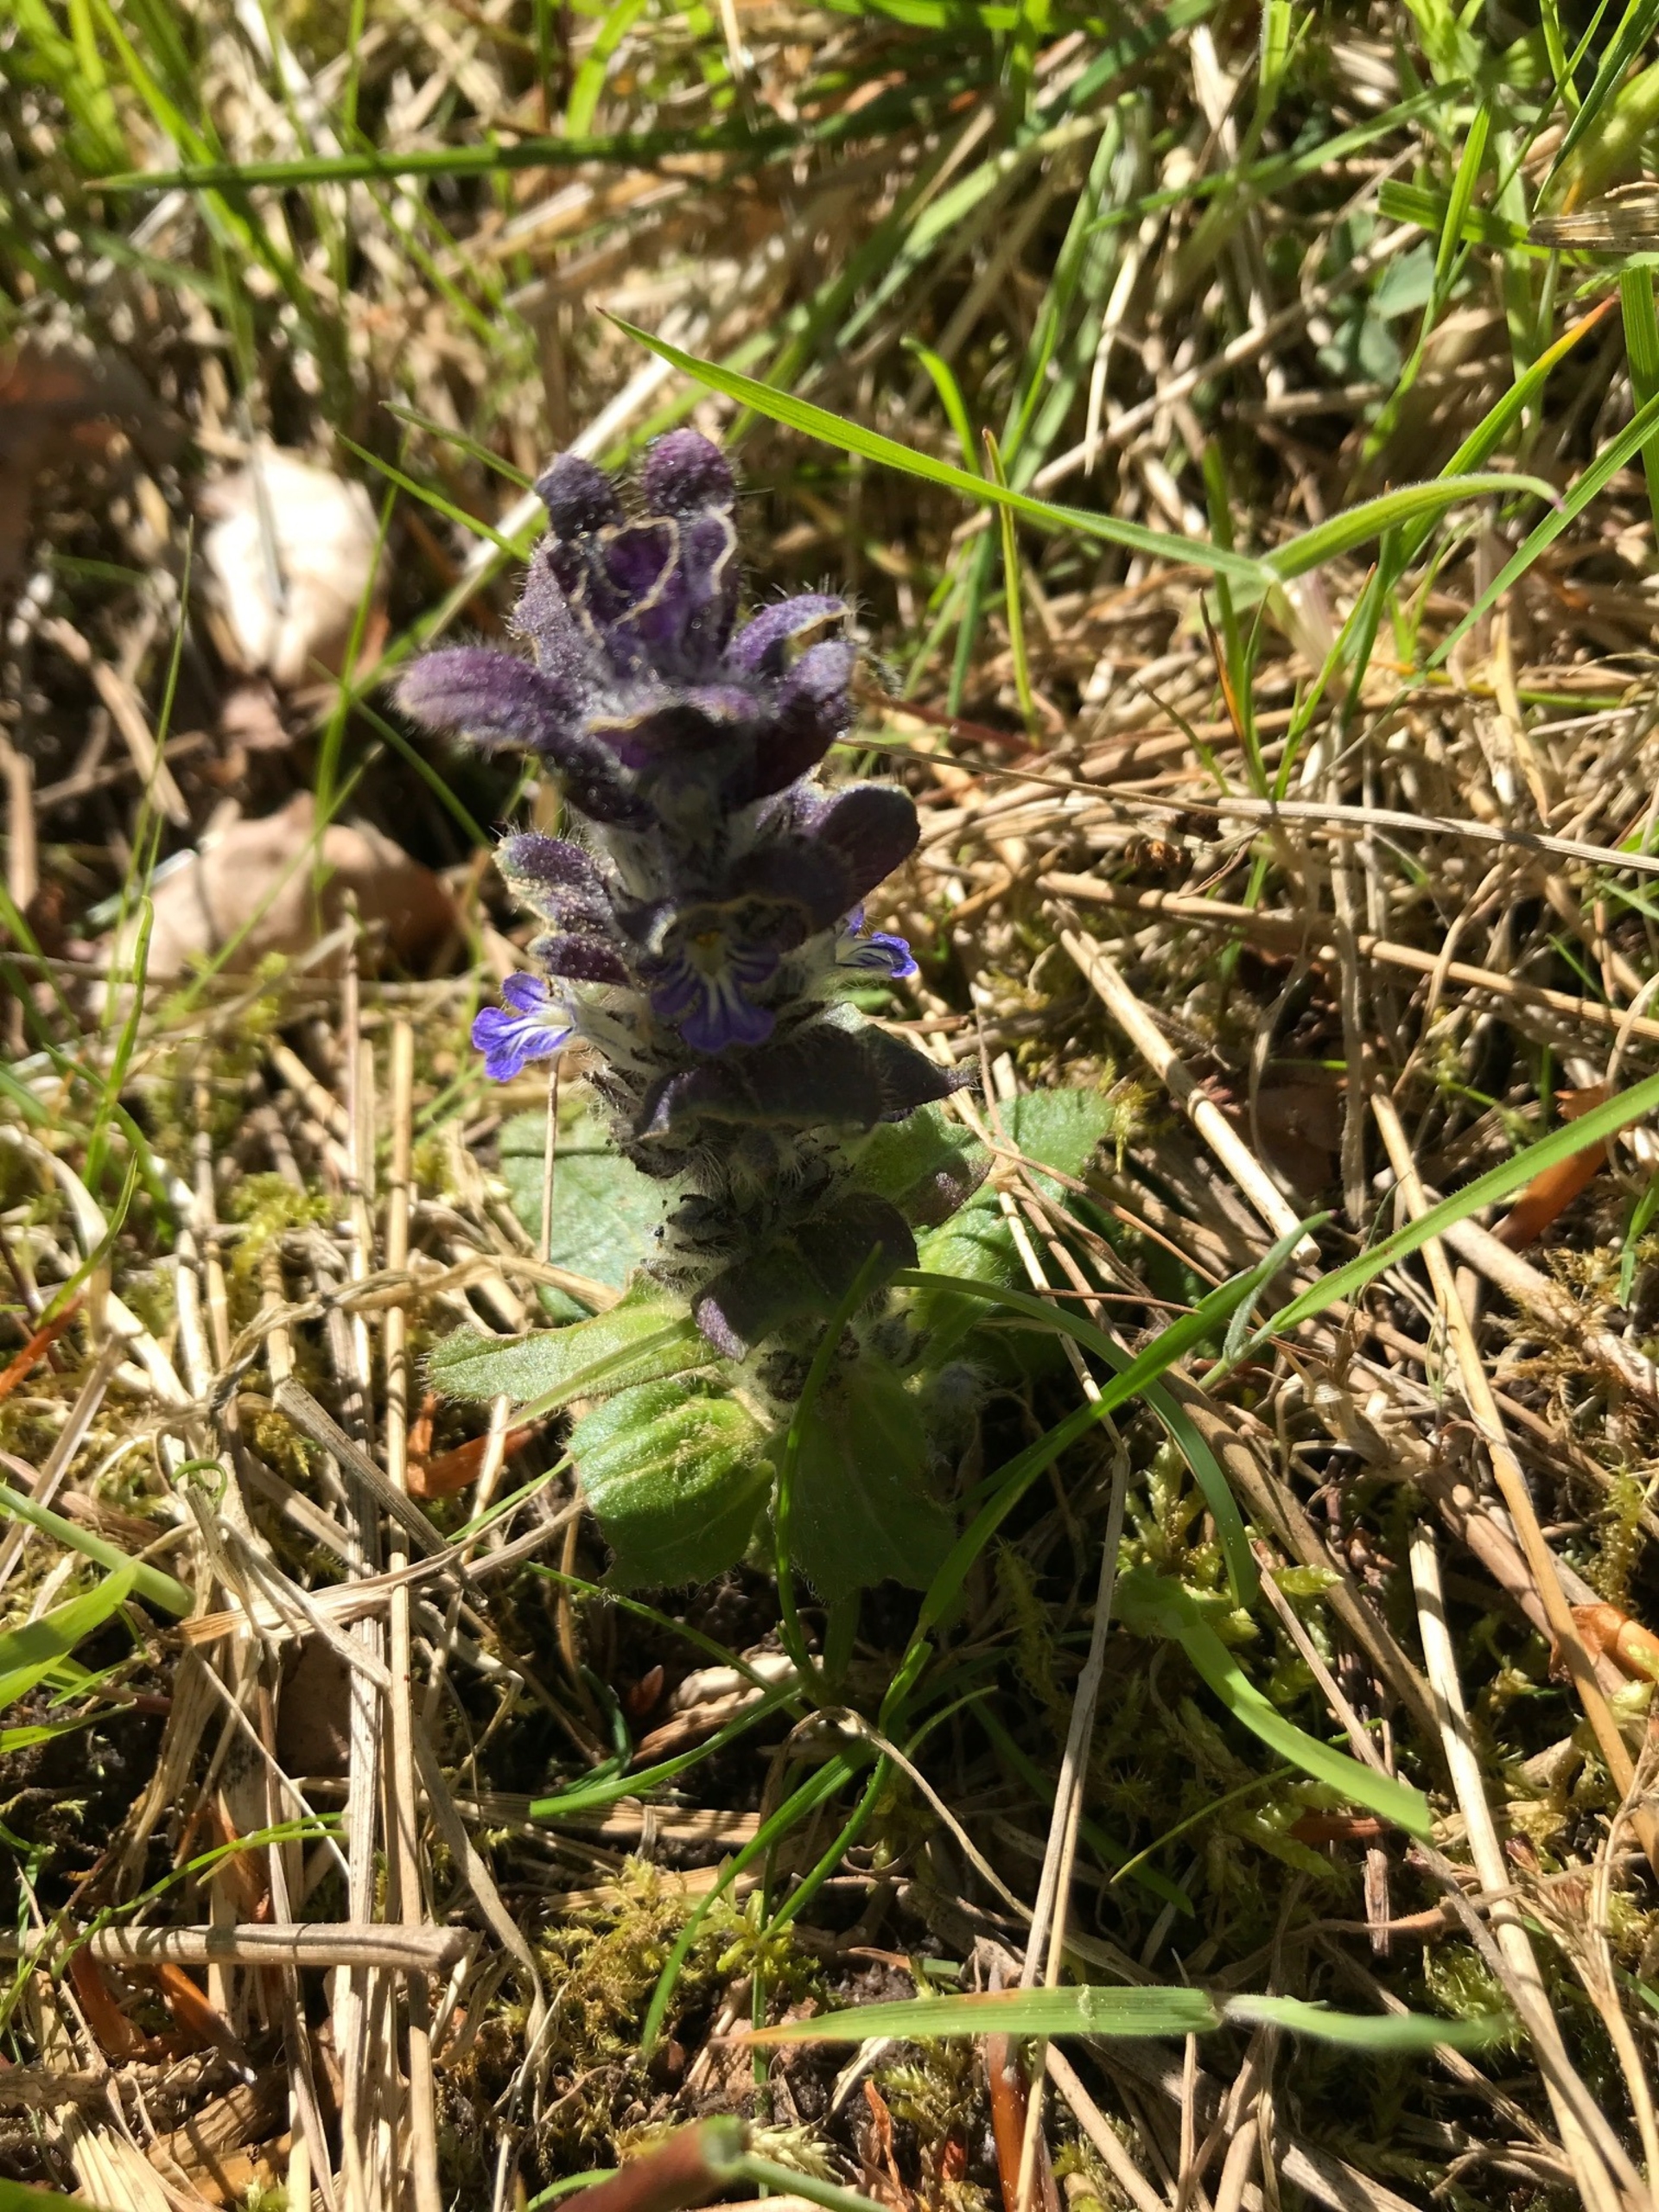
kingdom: Plantae
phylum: Tracheophyta
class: Magnoliopsida
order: Lamiales
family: Lamiaceae
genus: Ajuga
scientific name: Ajuga pyramidalis
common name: Pyramide-læbeløs
